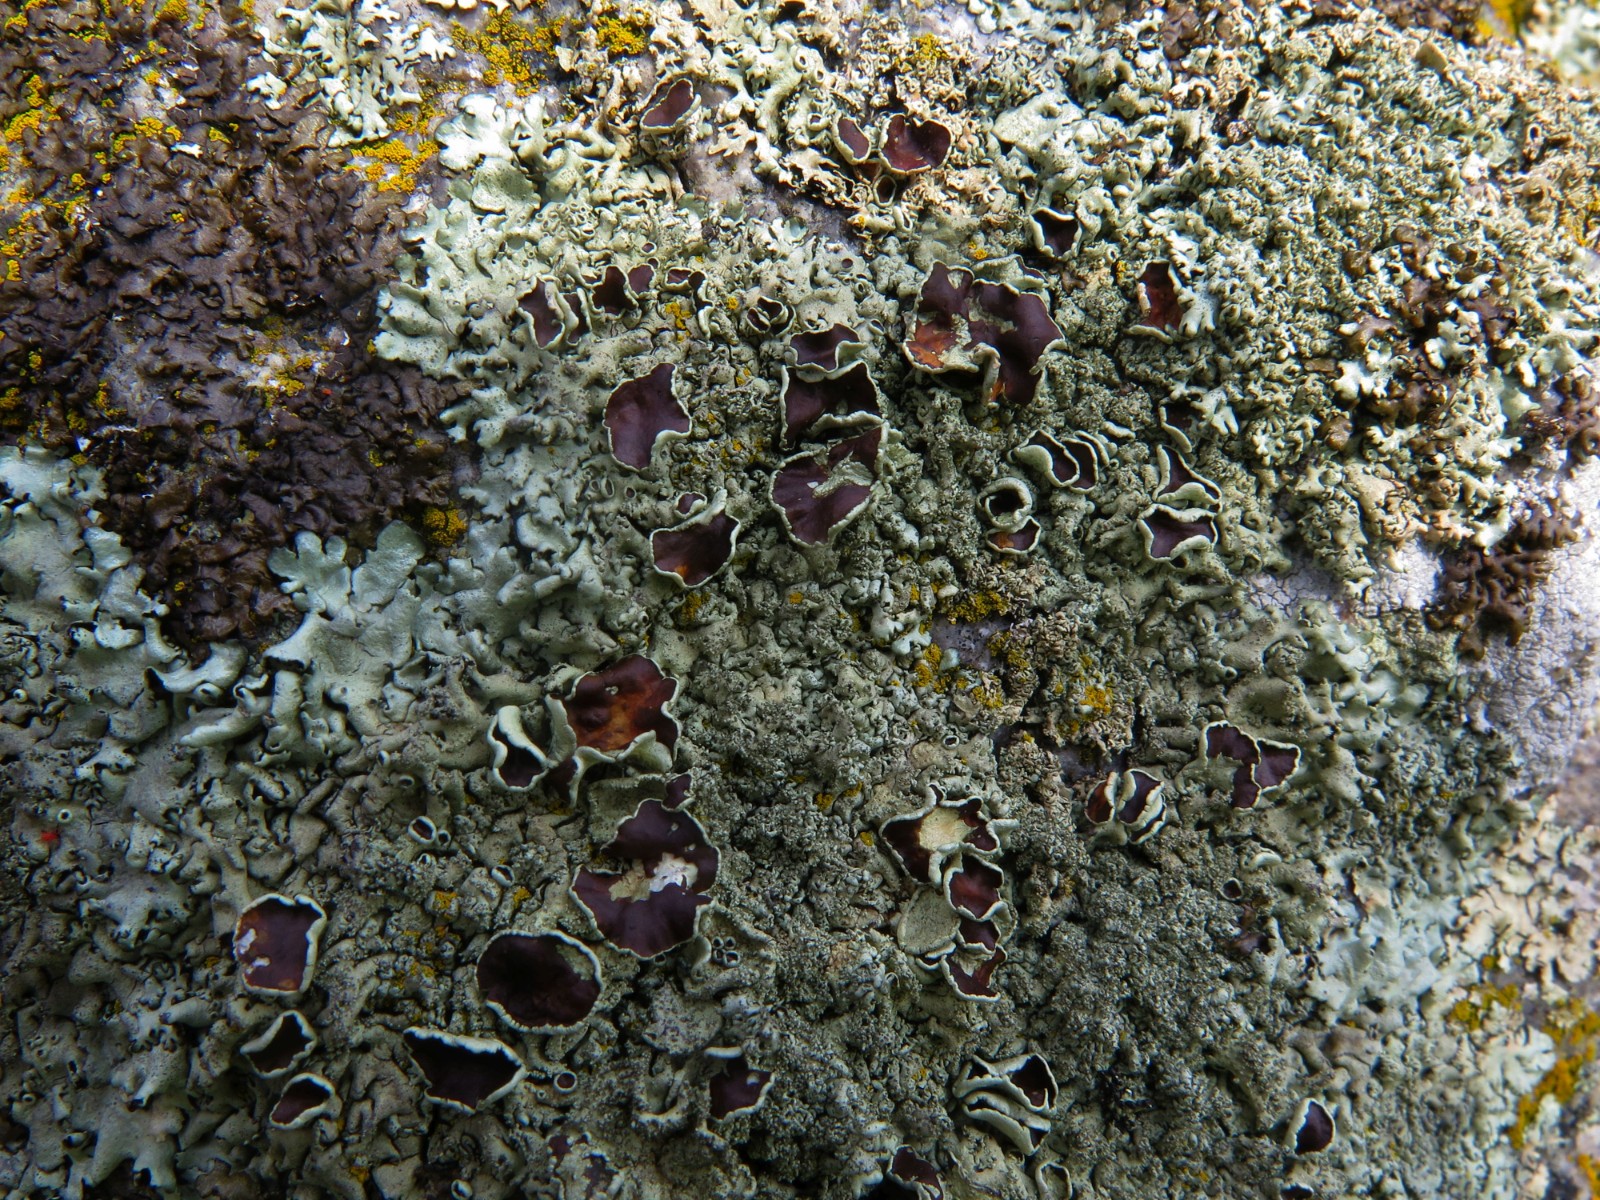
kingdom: Fungi
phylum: Ascomycota
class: Lecanoromycetes
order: Lecanorales
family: Parmeliaceae
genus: Xanthoparmelia
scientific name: Xanthoparmelia conspersa
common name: messing-skållav
